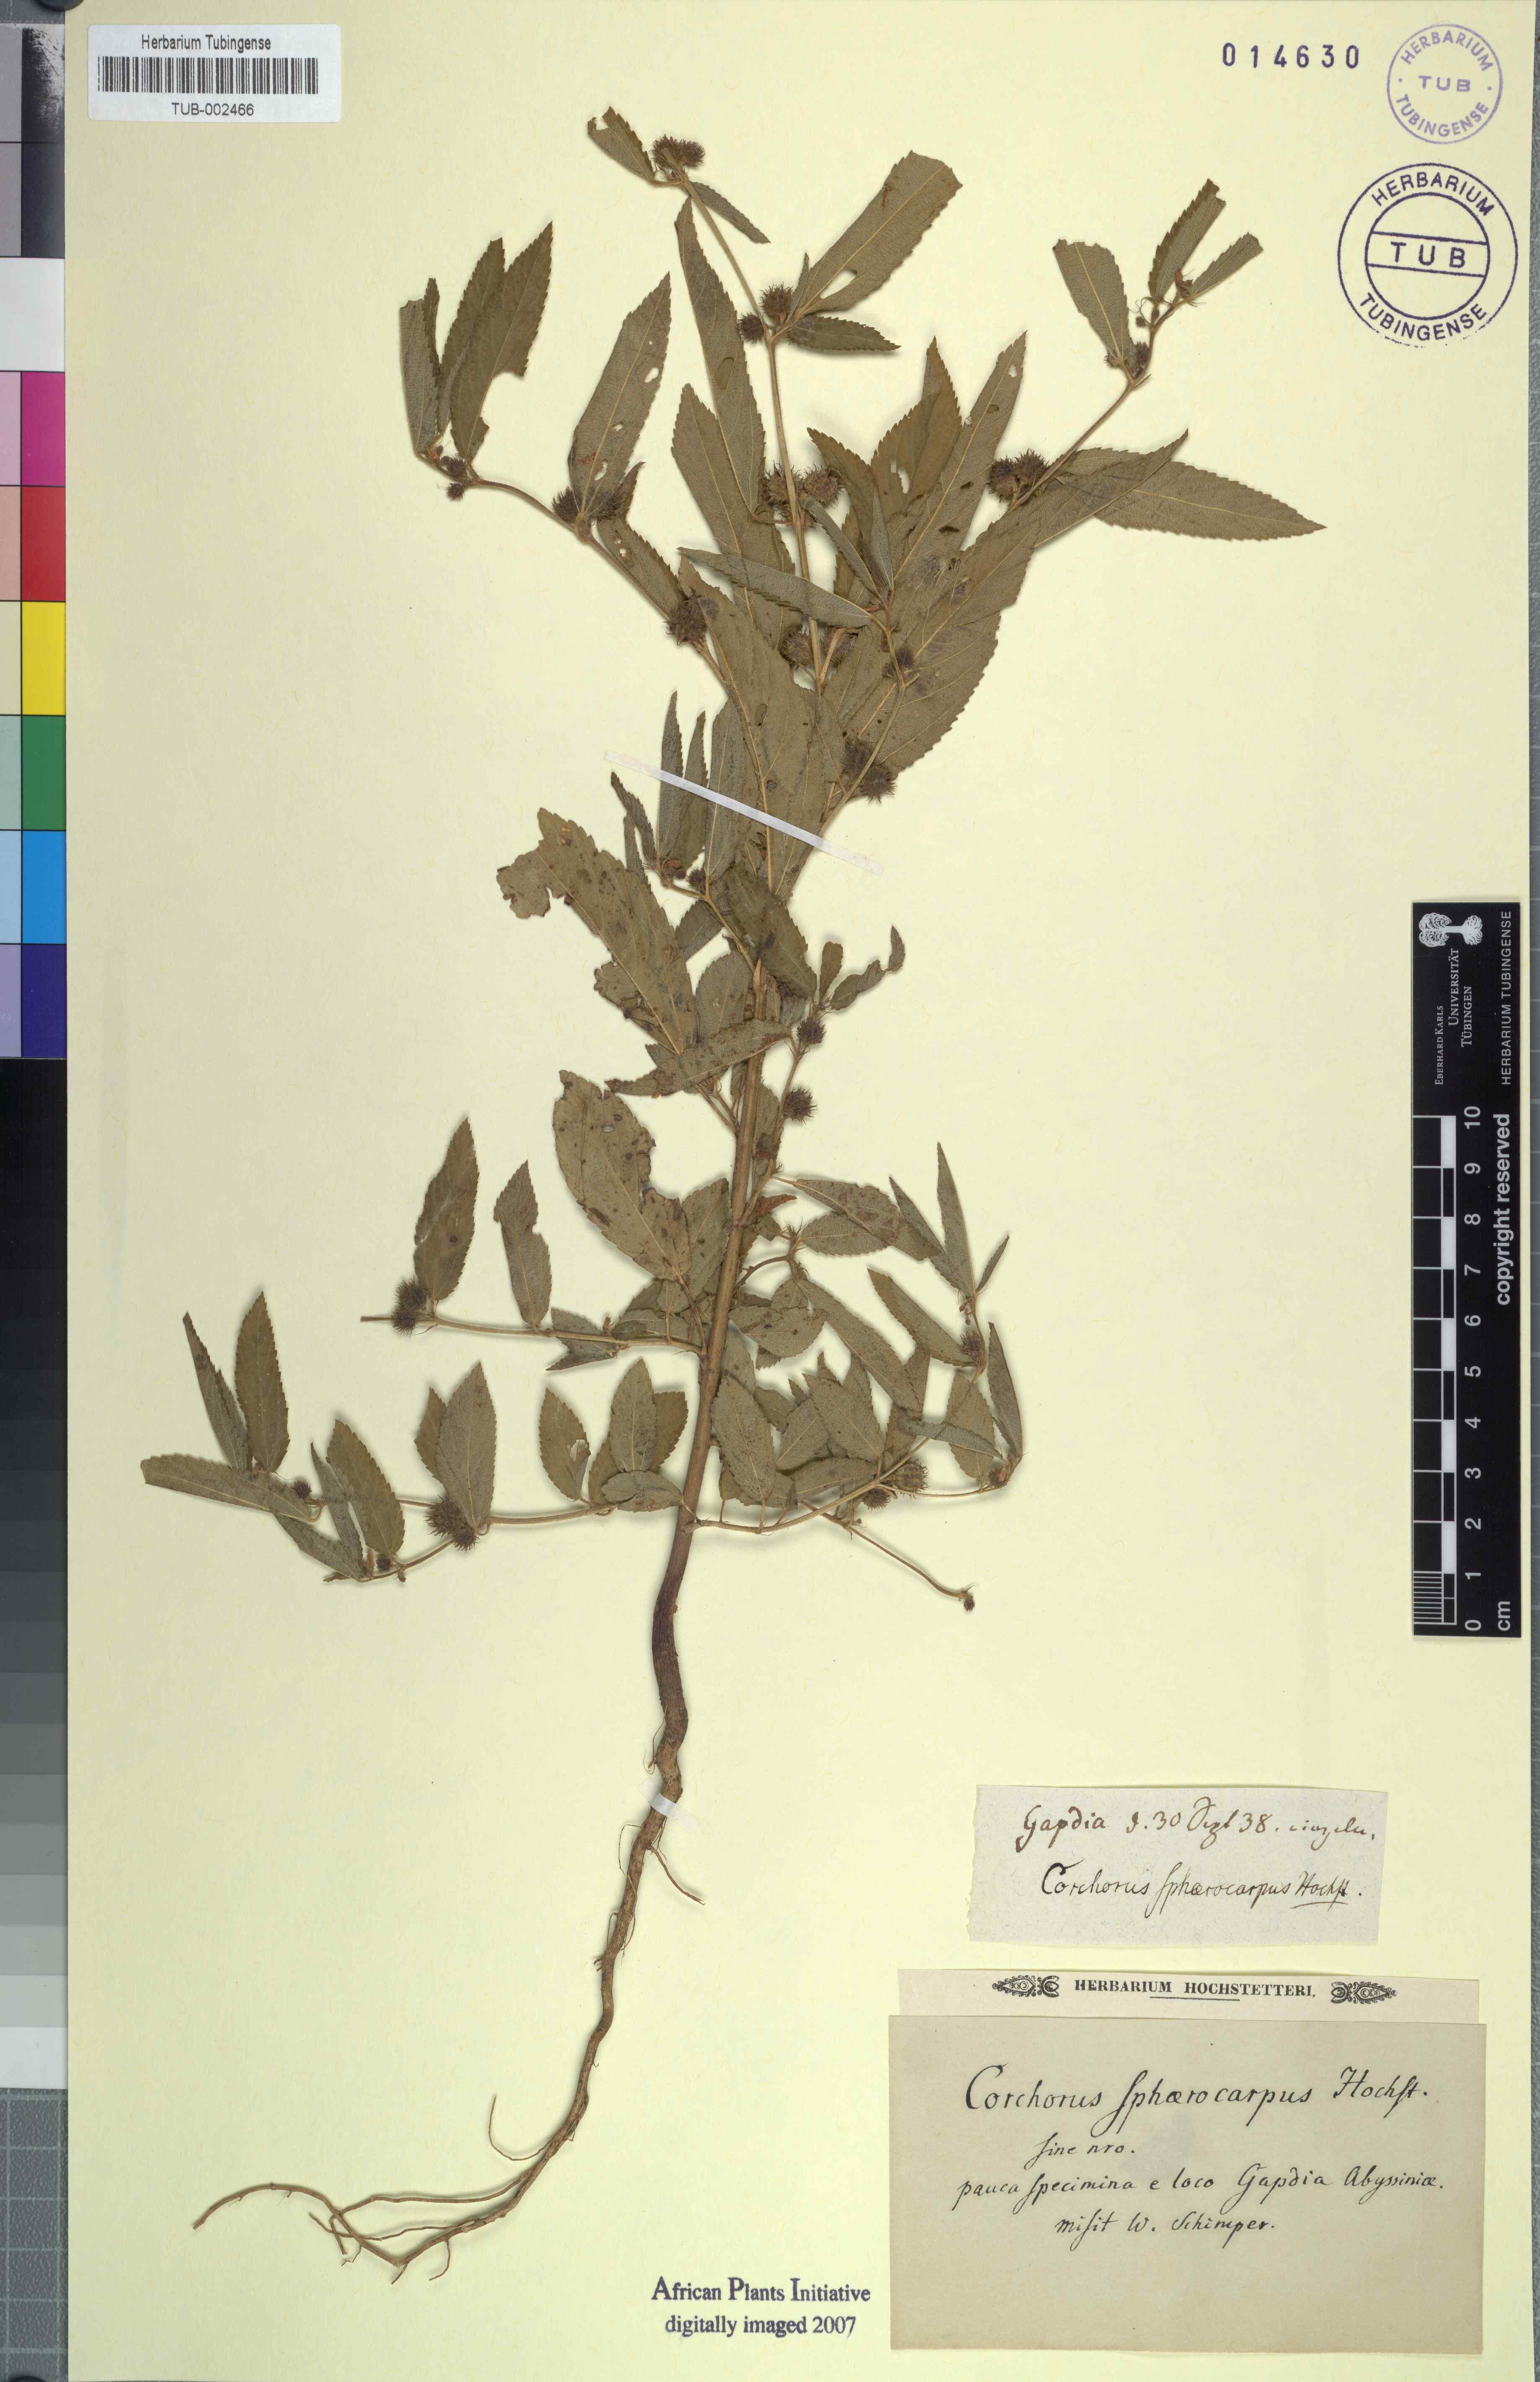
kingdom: Plantae
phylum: Tracheophyta
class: Magnoliopsida
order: Malvales
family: Malvaceae
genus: Corchorus
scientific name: Corchorus
